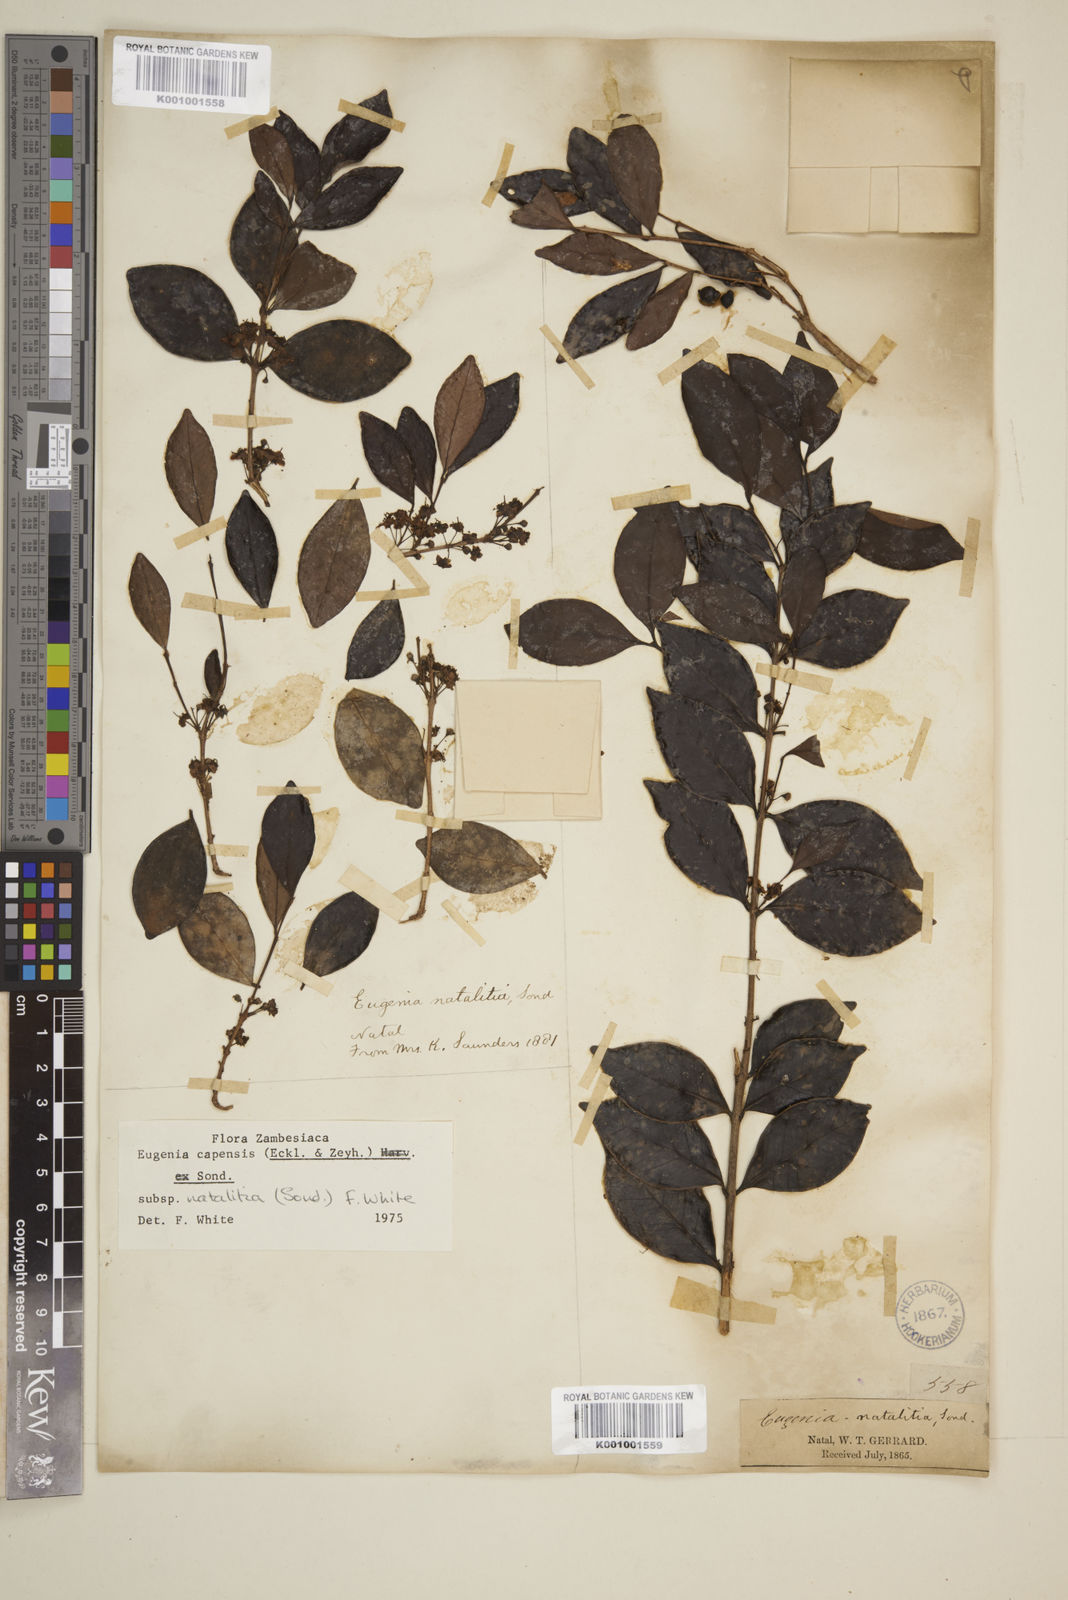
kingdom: Plantae
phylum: Tracheophyta
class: Magnoliopsida
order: Myrtales
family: Myrtaceae
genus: Eugenia
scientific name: Eugenia natalitia
